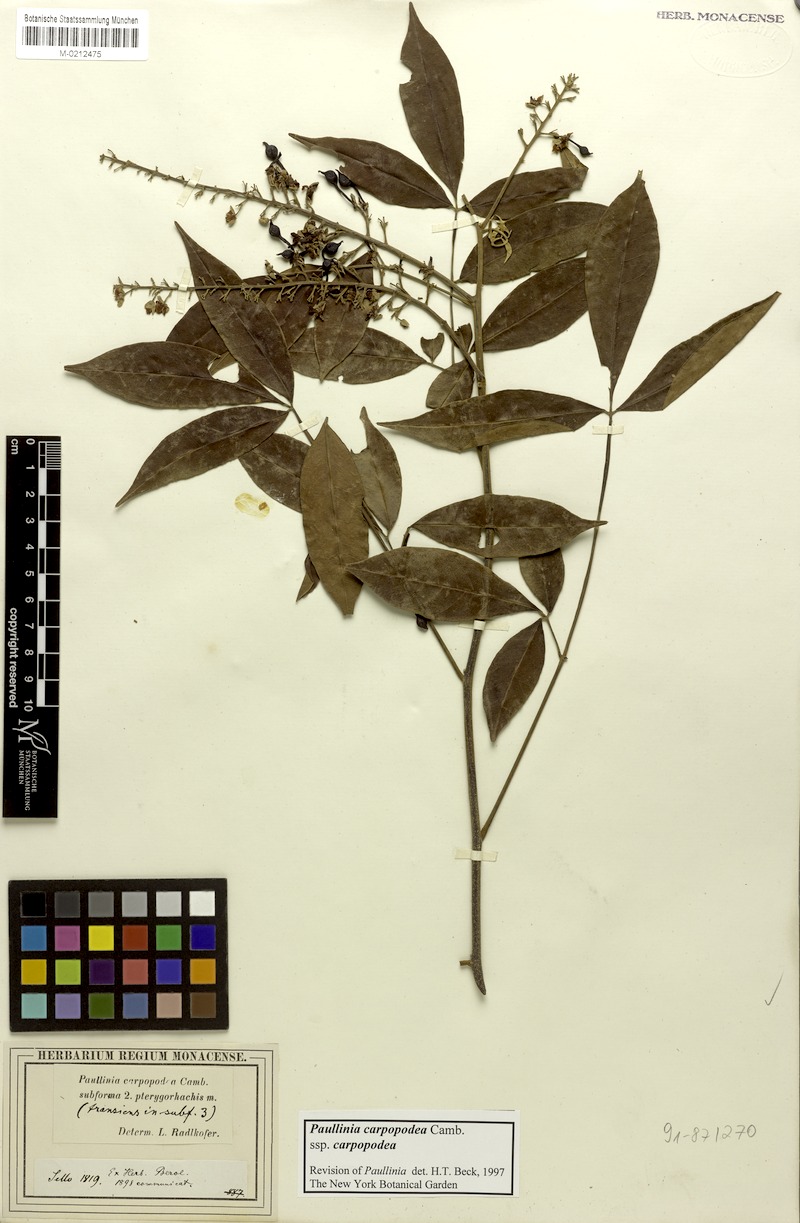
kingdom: Plantae
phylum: Tracheophyta
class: Magnoliopsida
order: Sapindales
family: Sapindaceae
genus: Paullinia
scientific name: Paullinia carpopoda
